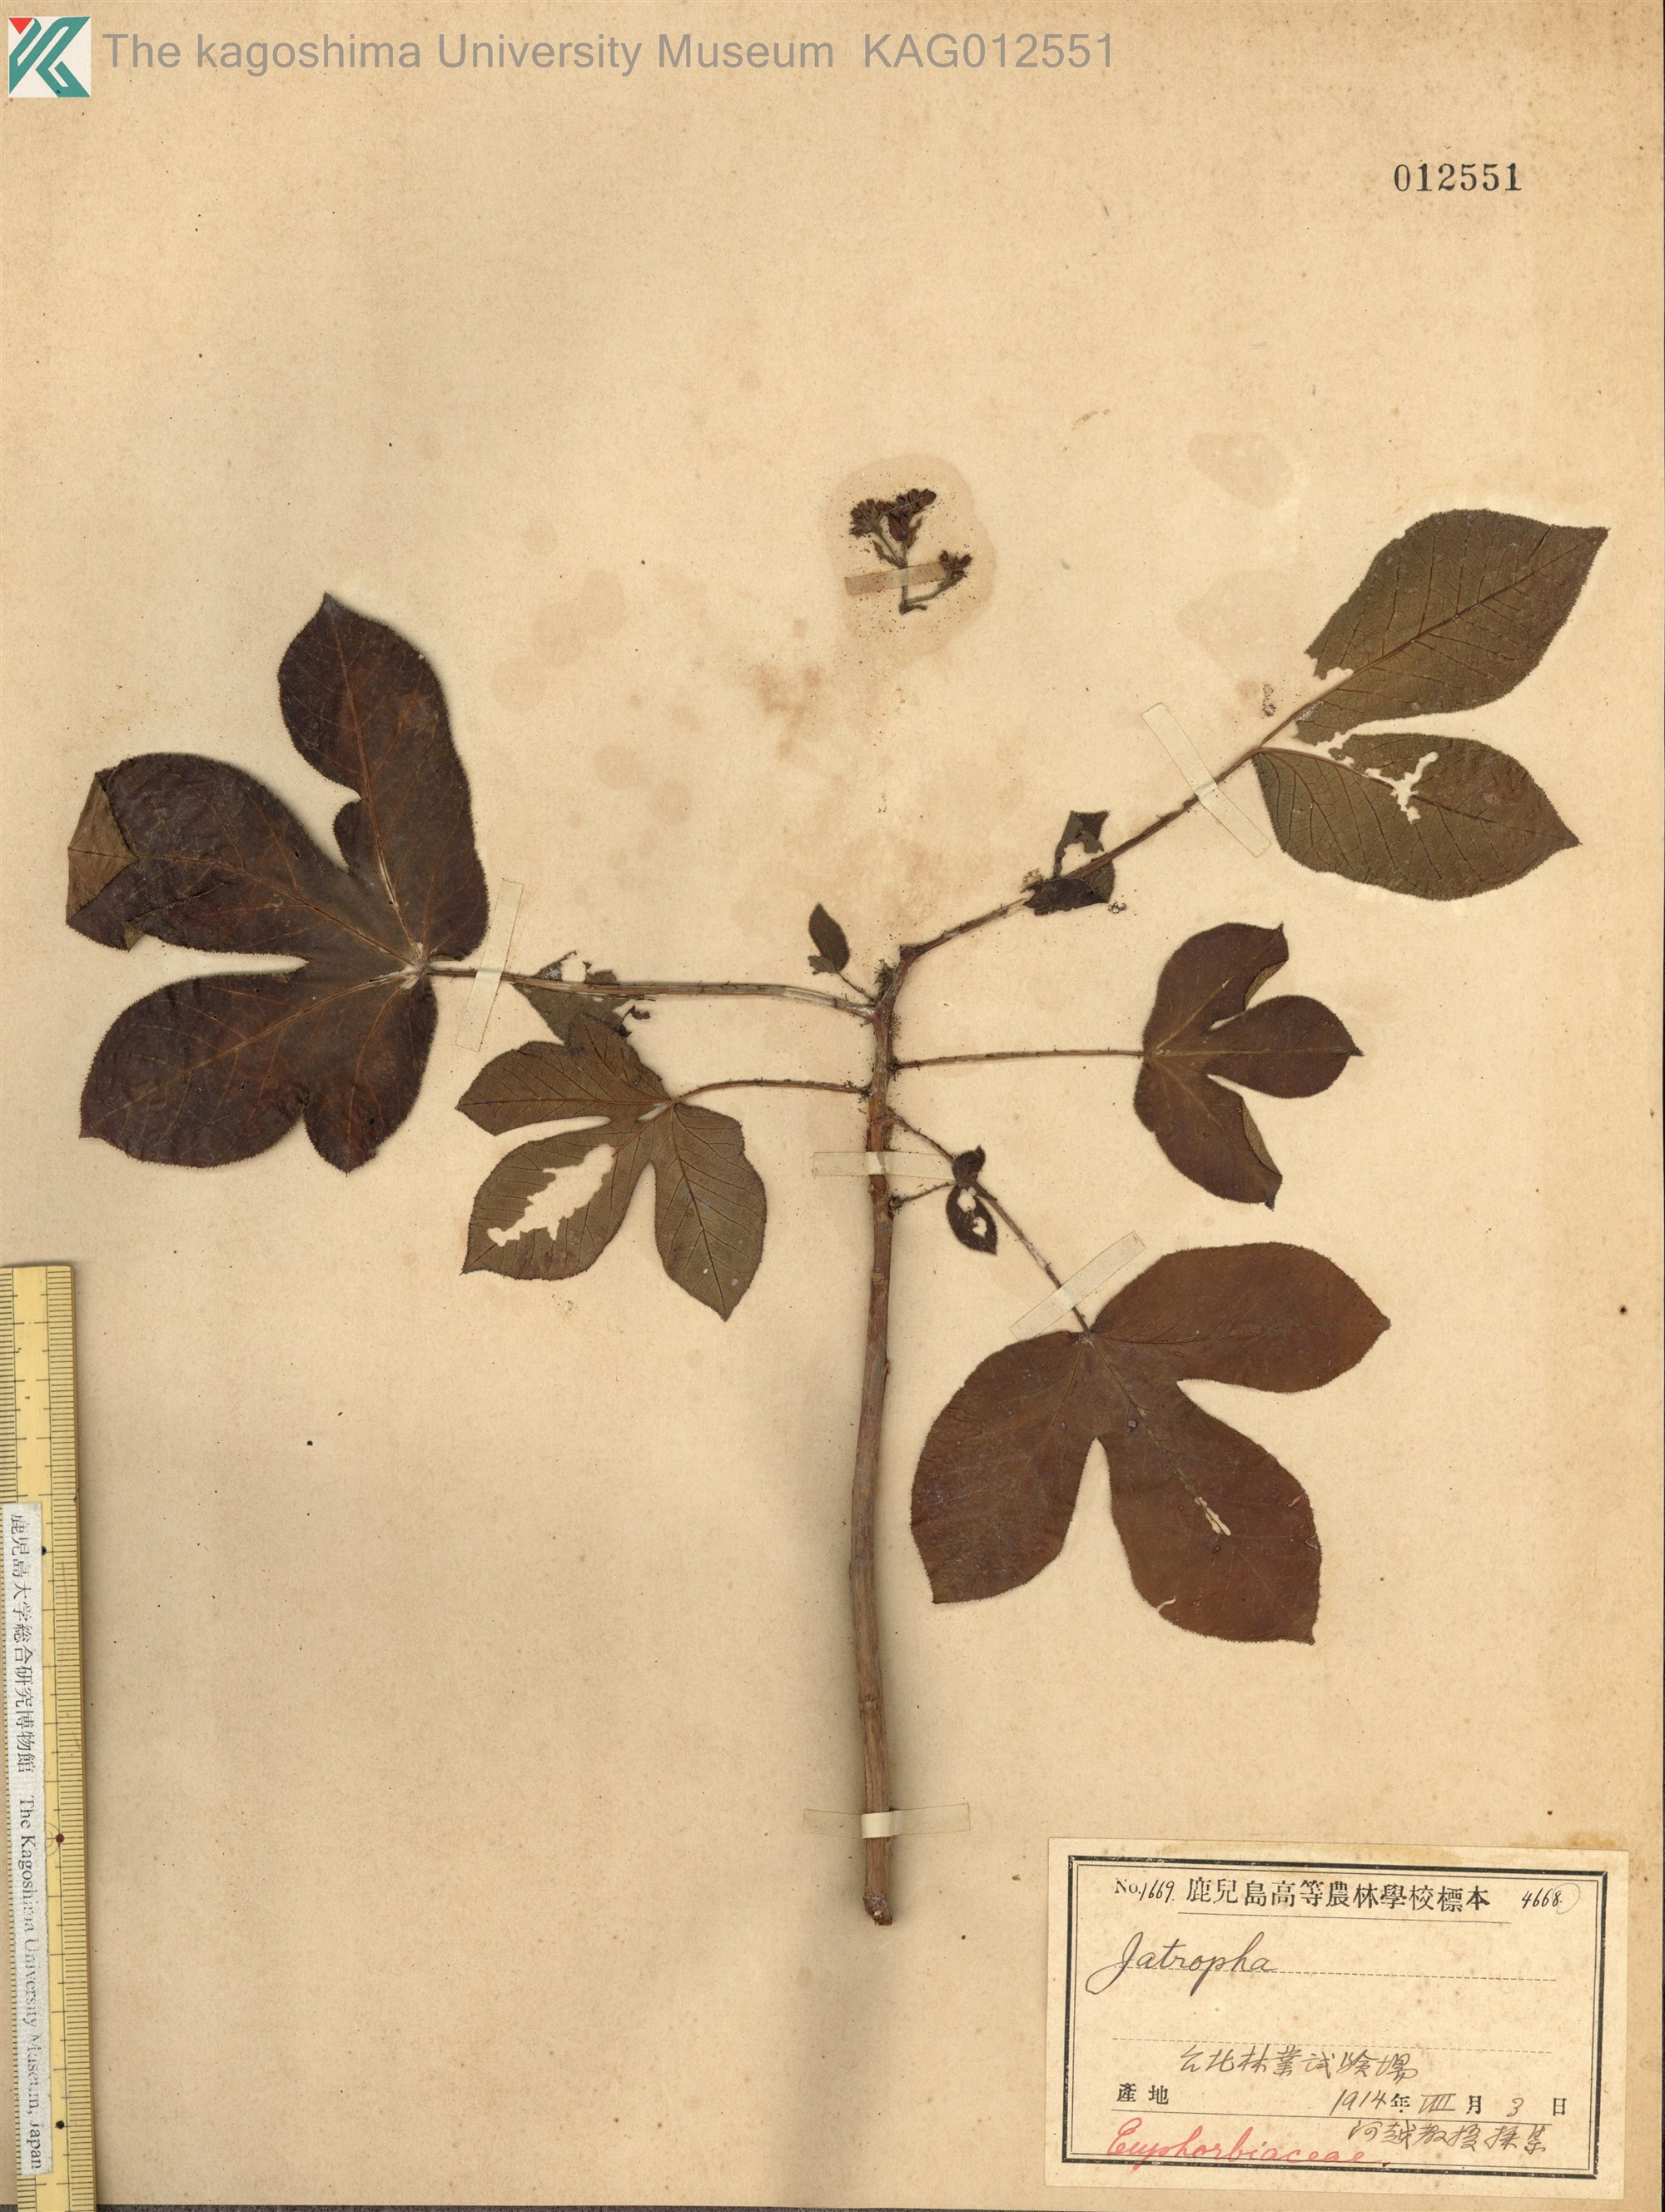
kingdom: Plantae
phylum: Tracheophyta
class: Magnoliopsida
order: Malpighiales
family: Euphorbiaceae
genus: Jatropha
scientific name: Jatropha gossypiifolia
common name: Bellyache bush
